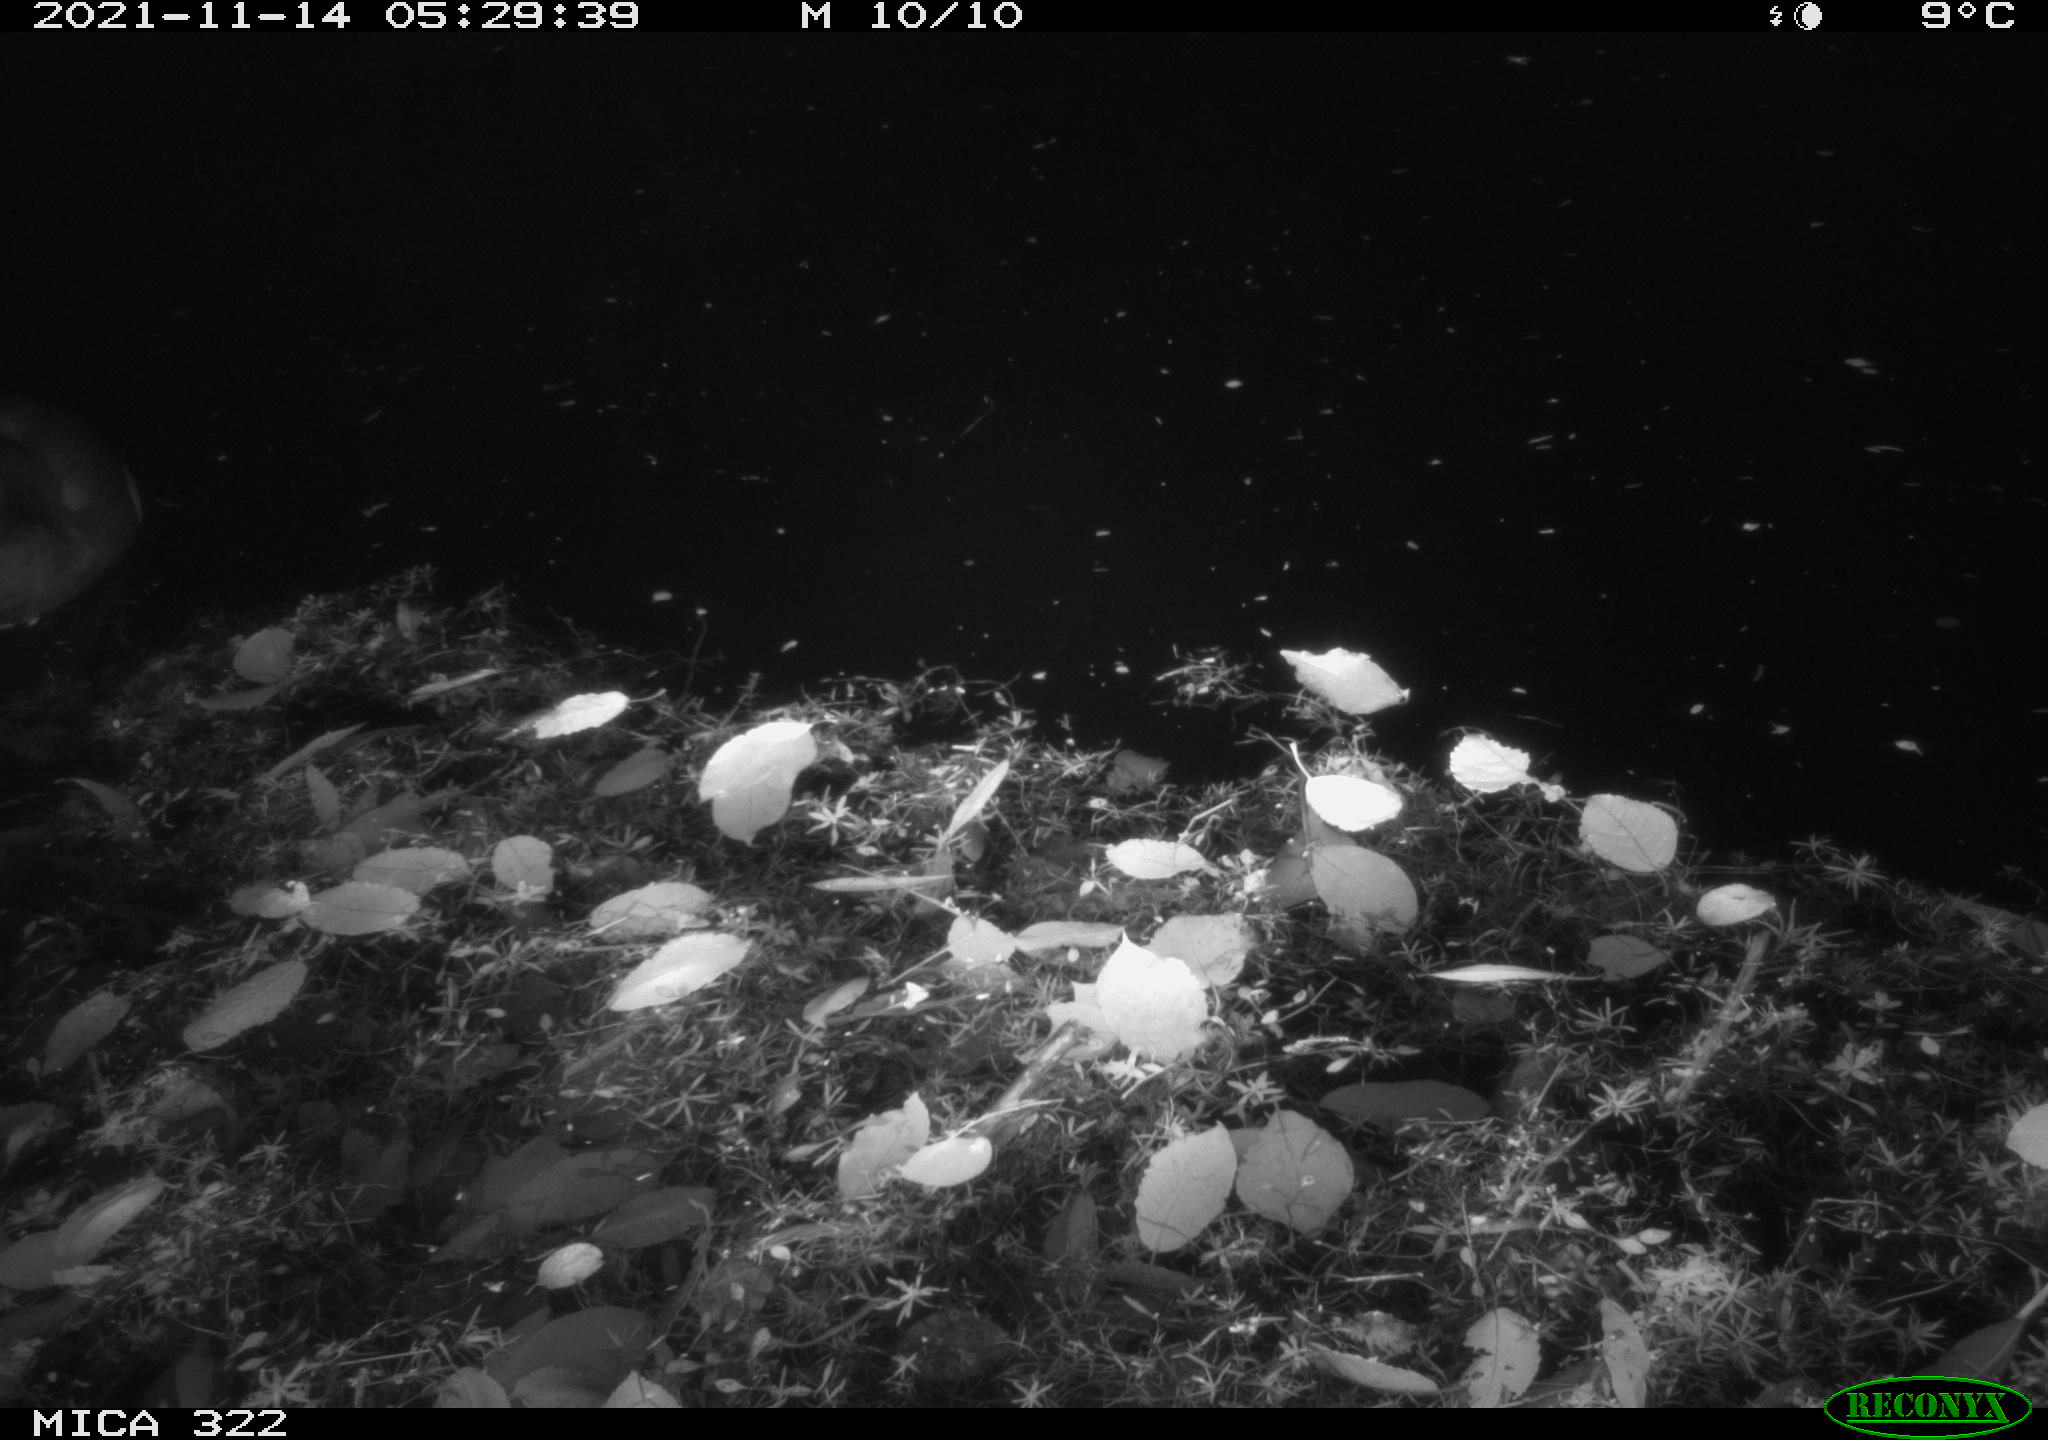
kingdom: Animalia
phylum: Chordata
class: Aves
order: Gruiformes
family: Rallidae
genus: Fulica
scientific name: Fulica atra
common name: Eurasian coot
